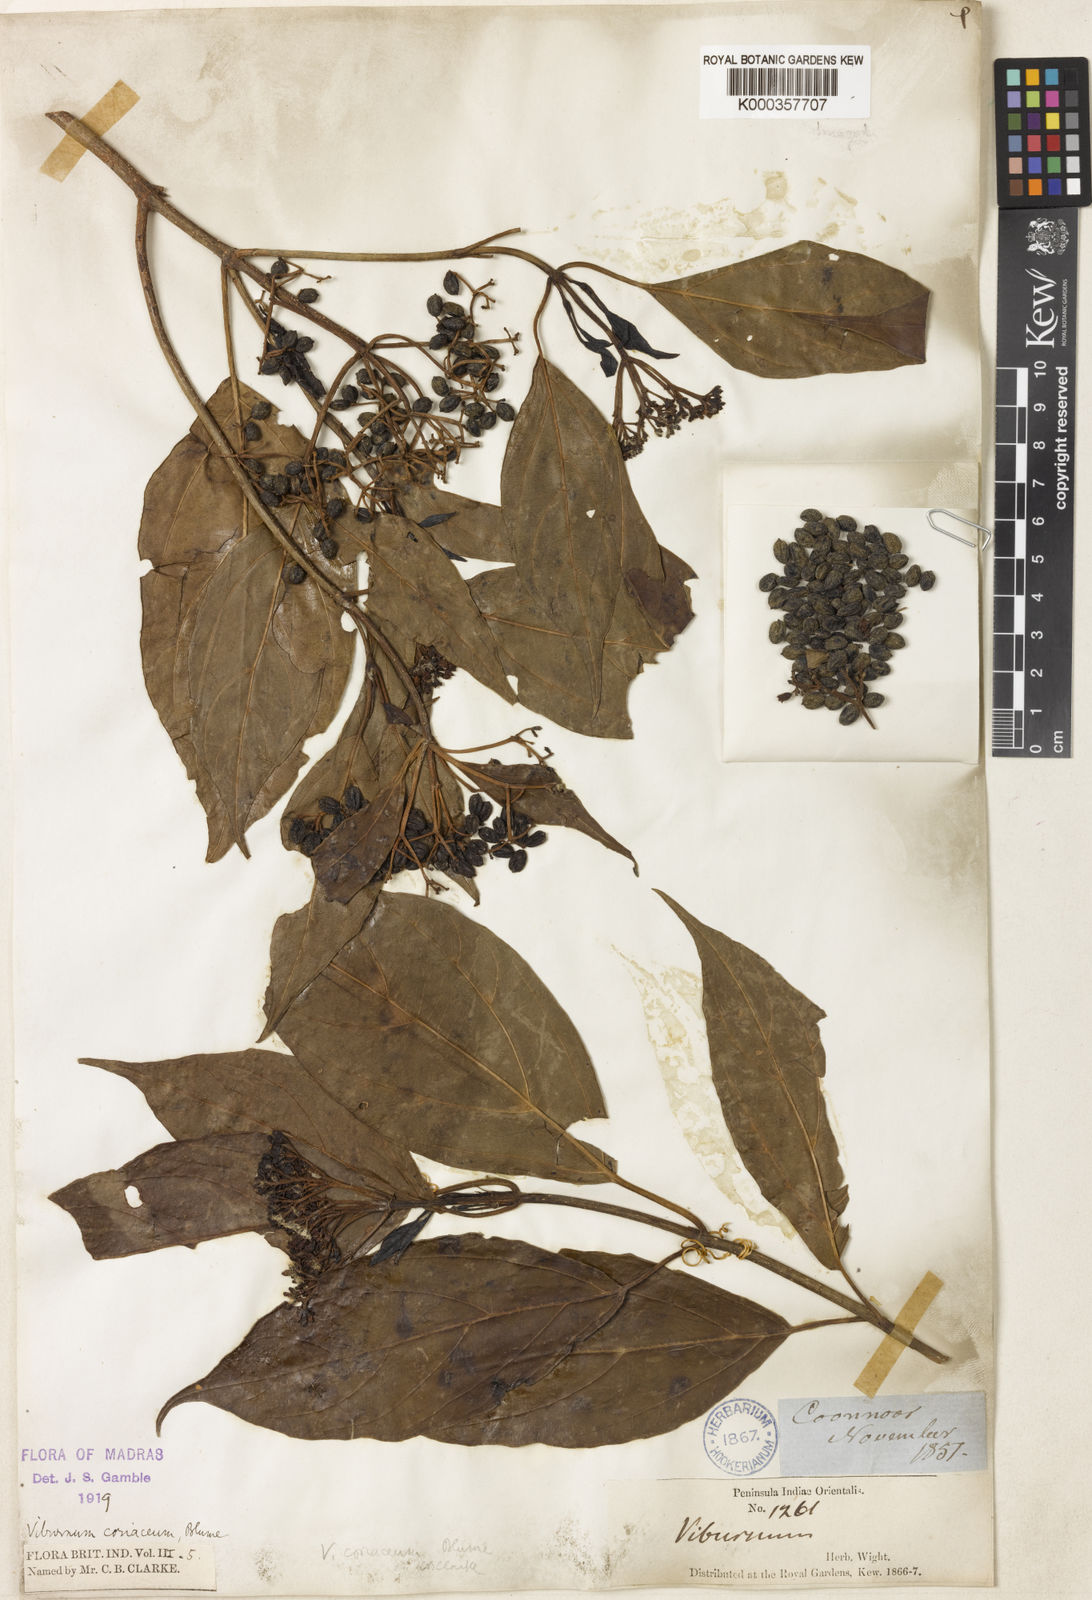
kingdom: Plantae
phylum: Tracheophyta
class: Magnoliopsida
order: Dipsacales
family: Viburnaceae
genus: Viburnum
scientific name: Viburnum coriaceum
